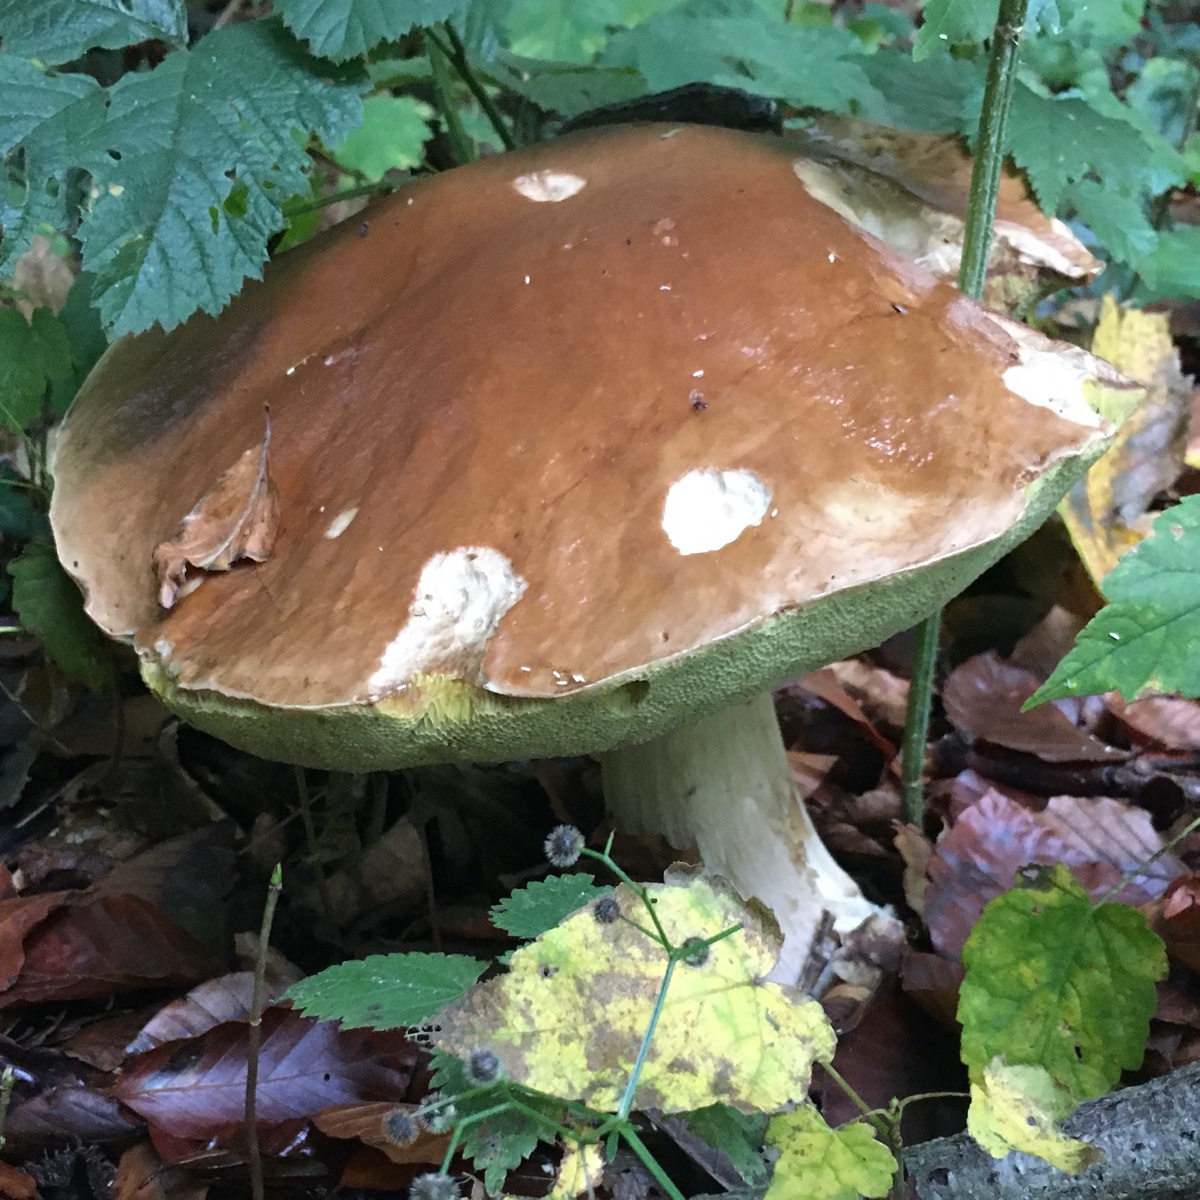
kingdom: Fungi
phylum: Basidiomycota
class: Agaricomycetes
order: Boletales
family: Boletaceae
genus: Boletus
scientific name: Boletus edulis
